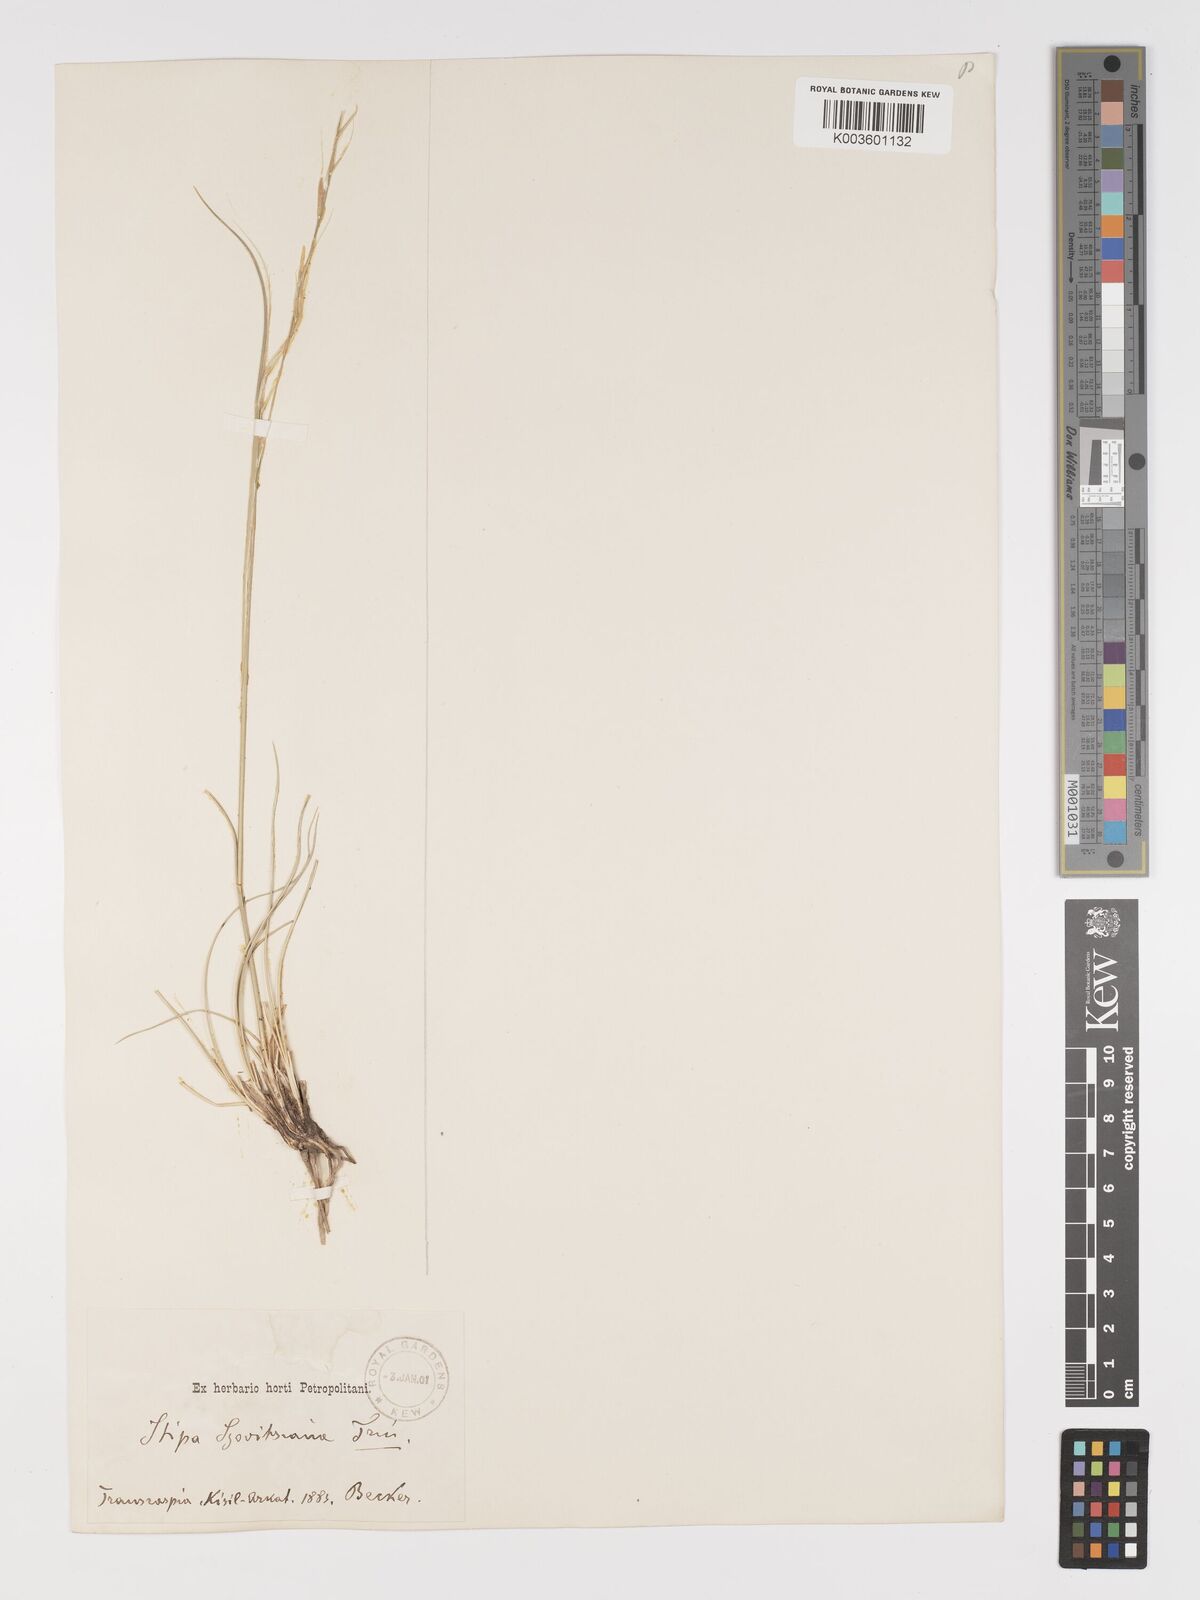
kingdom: Plantae
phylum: Tracheophyta
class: Liliopsida
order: Poales
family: Poaceae
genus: Stipa
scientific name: Stipa arabica
